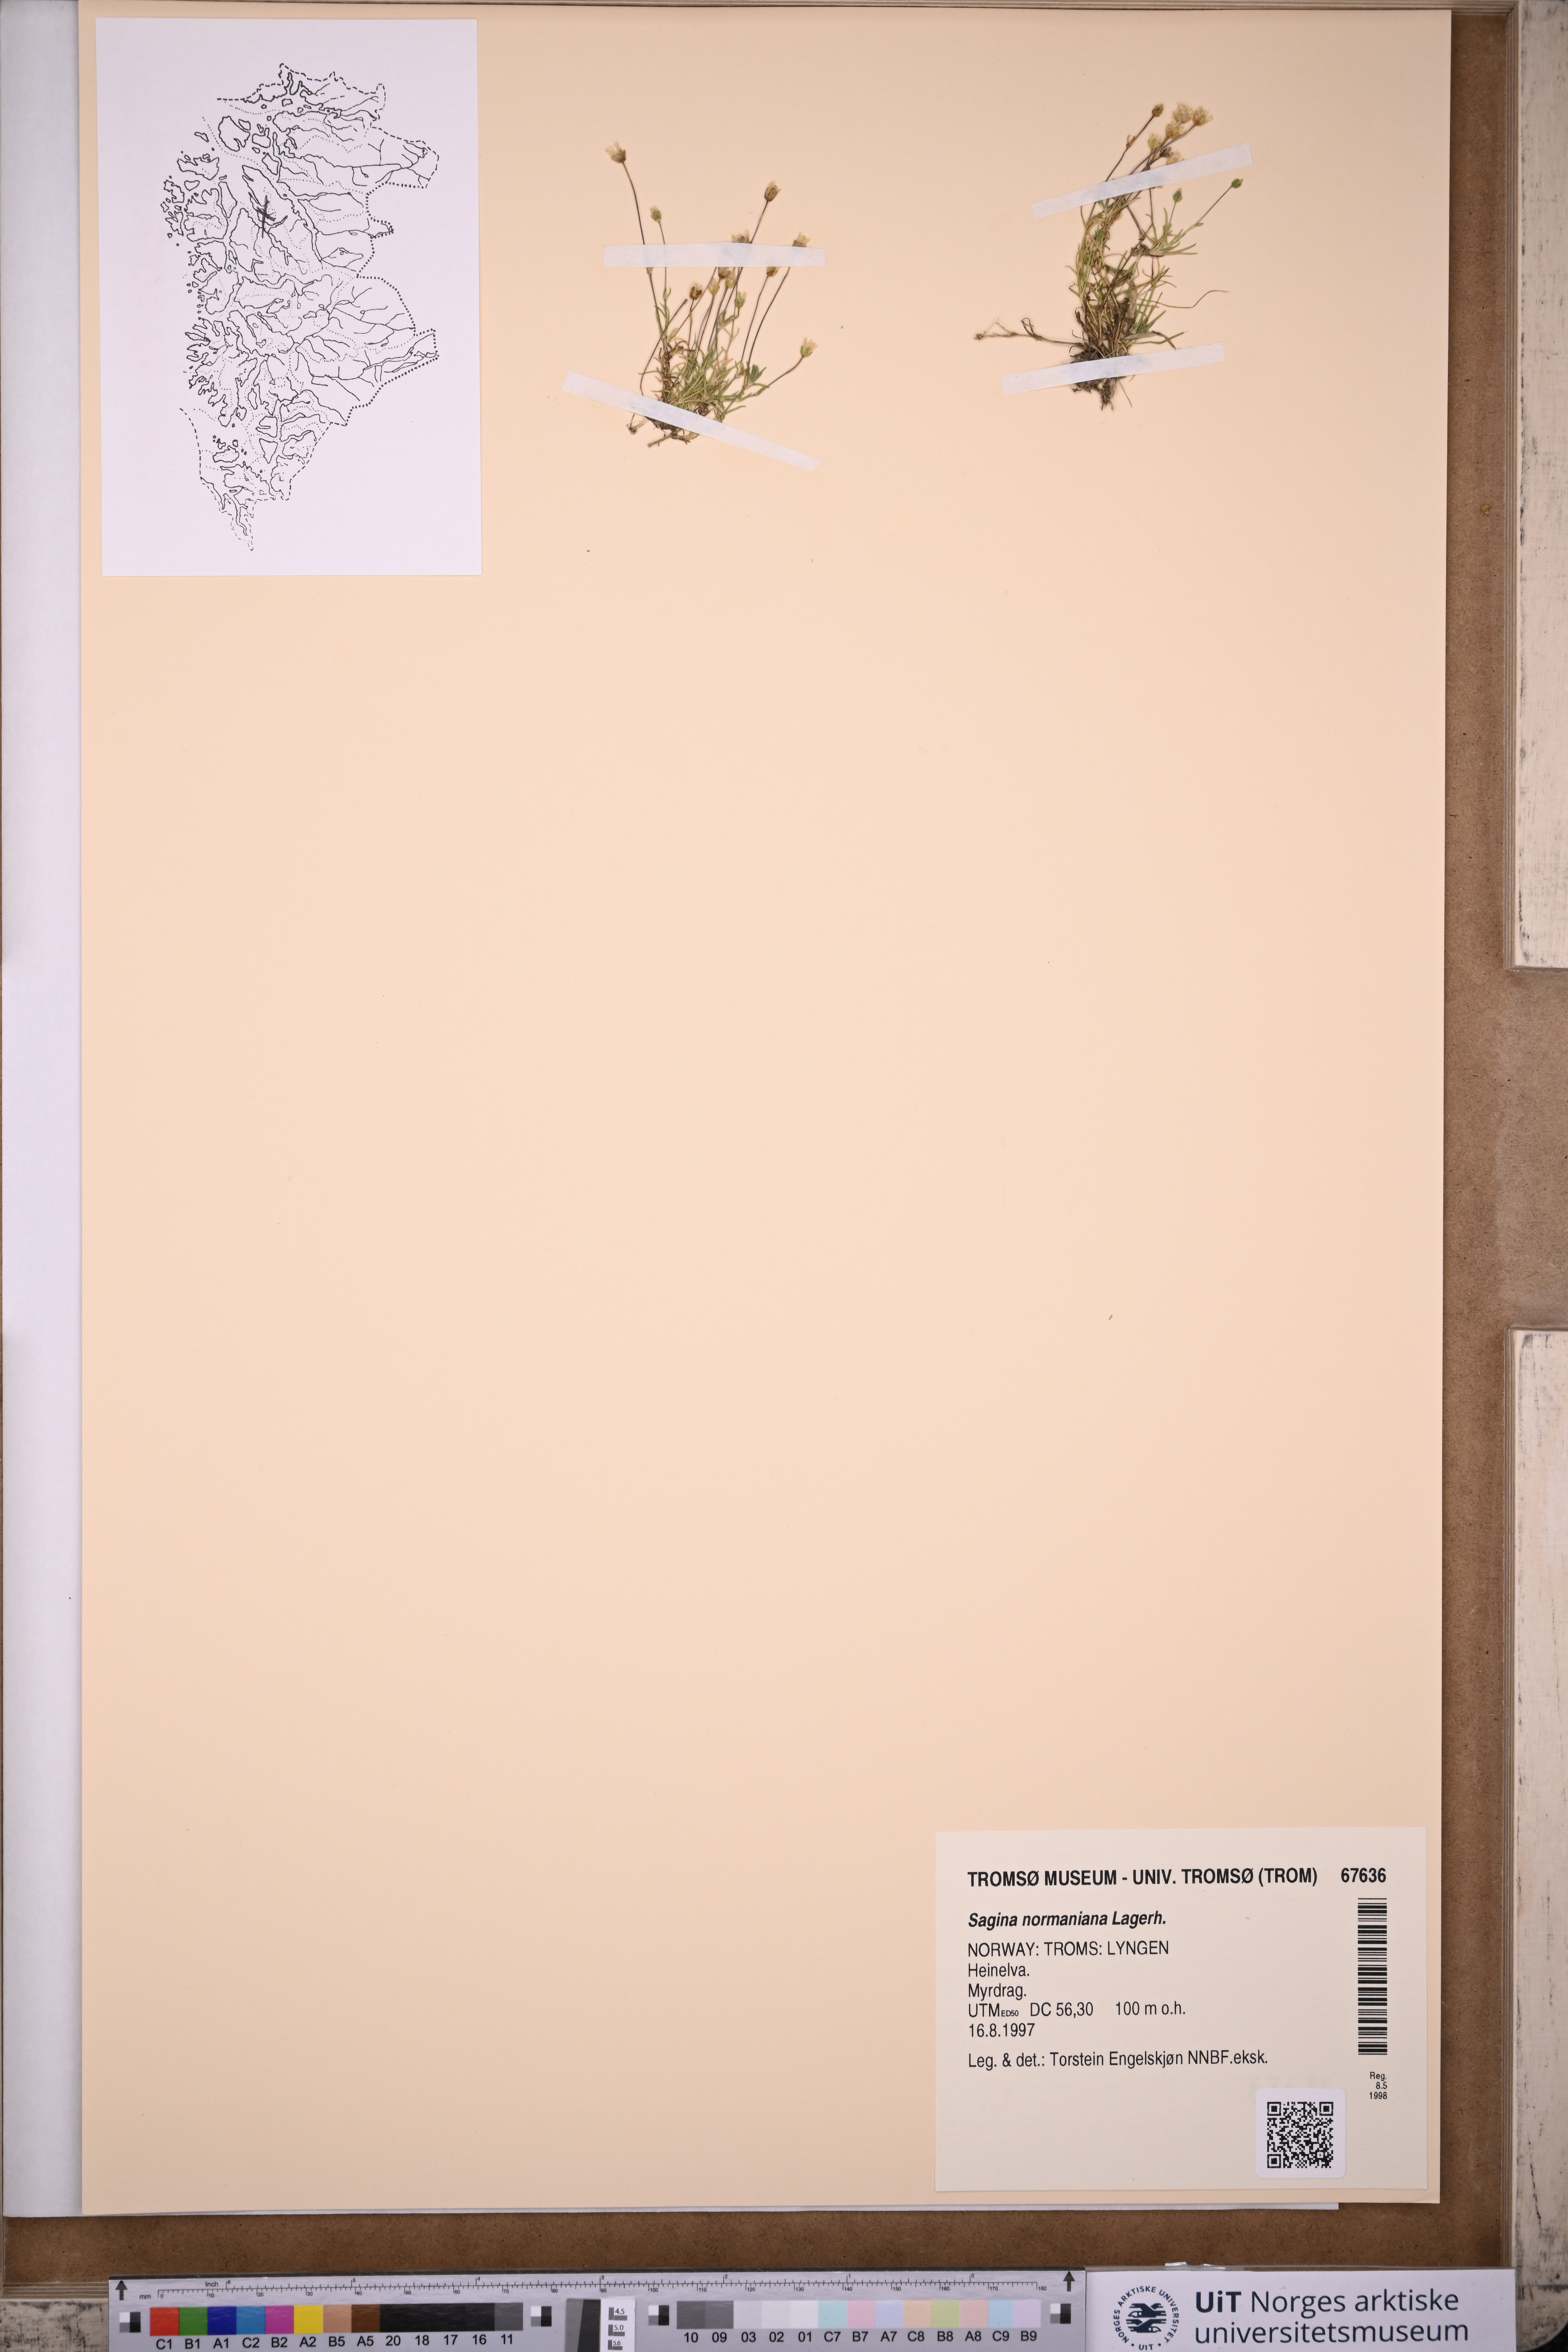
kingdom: Plantae
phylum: Tracheophyta
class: Magnoliopsida
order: Caryophyllales
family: Caryophyllaceae
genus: Sagina
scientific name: Sagina media
